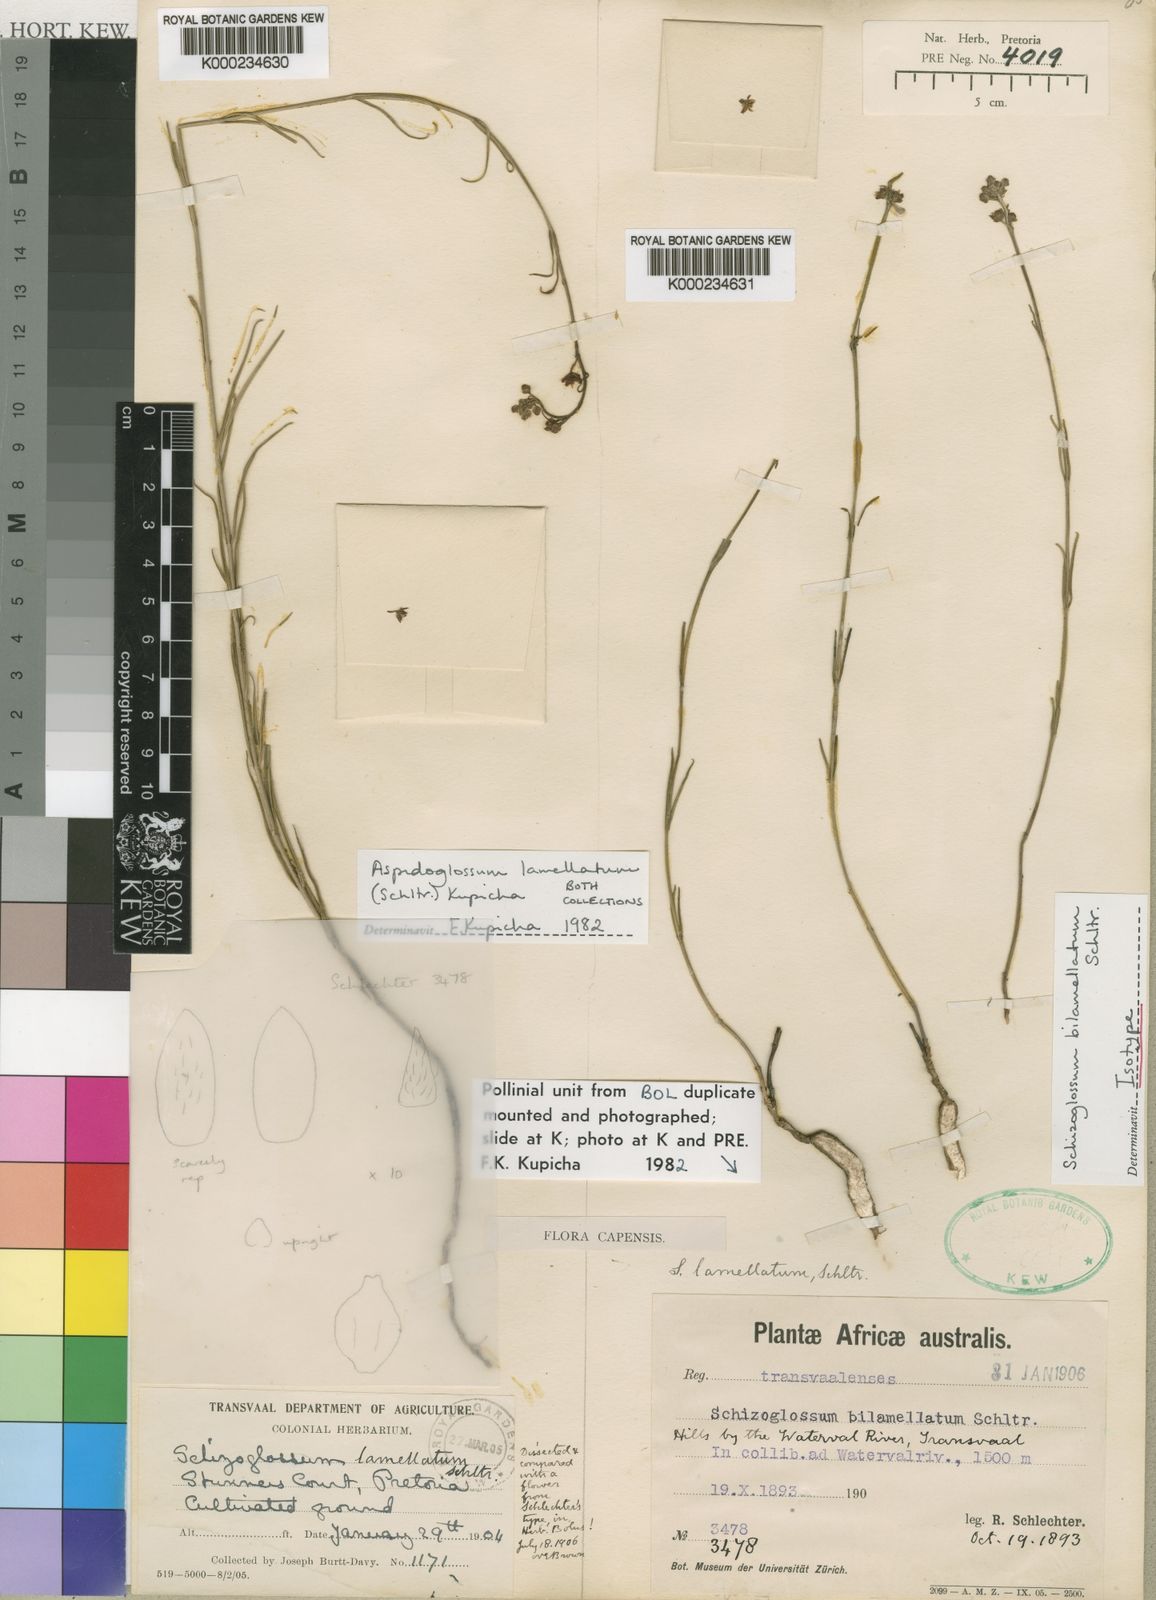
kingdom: Plantae
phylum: Tracheophyta
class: Magnoliopsida
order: Gentianales
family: Apocynaceae
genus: Aspidoglossum
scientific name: Aspidoglossum lamellatum
